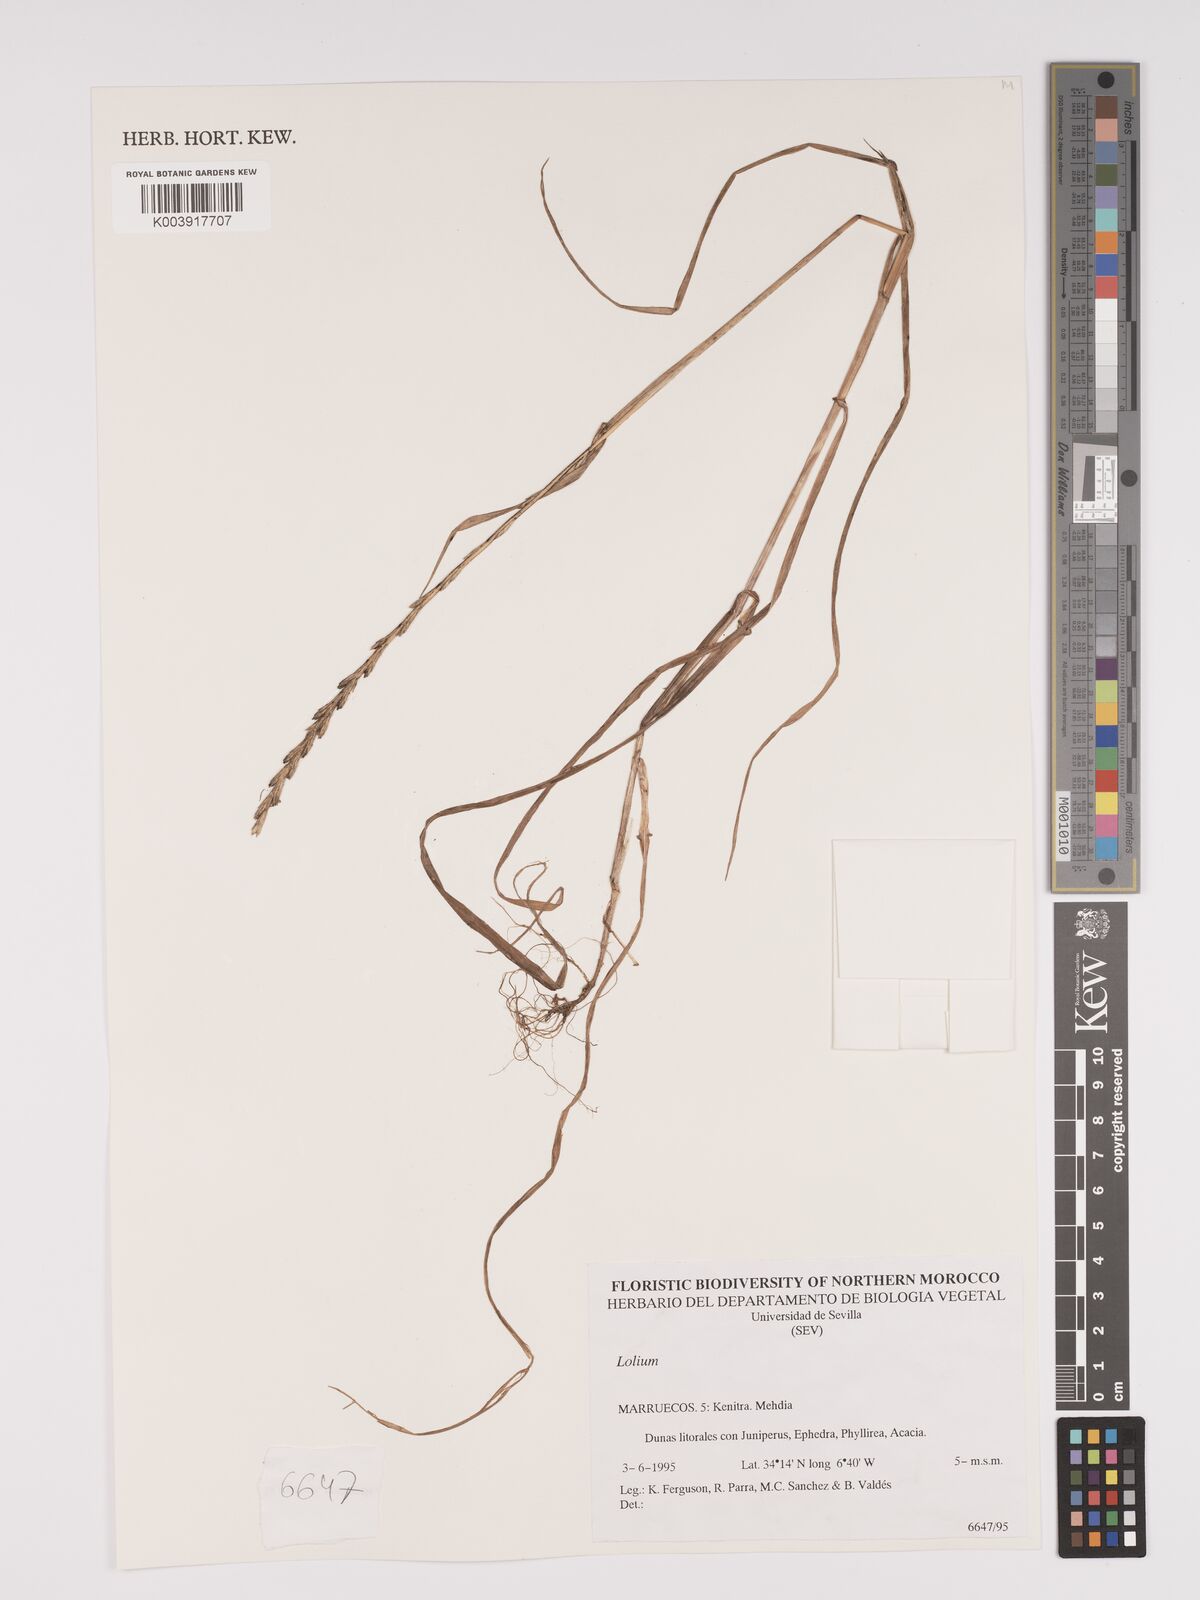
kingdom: Plantae
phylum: Tracheophyta
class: Liliopsida
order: Poales
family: Poaceae
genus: Lolium
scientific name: Lolium
